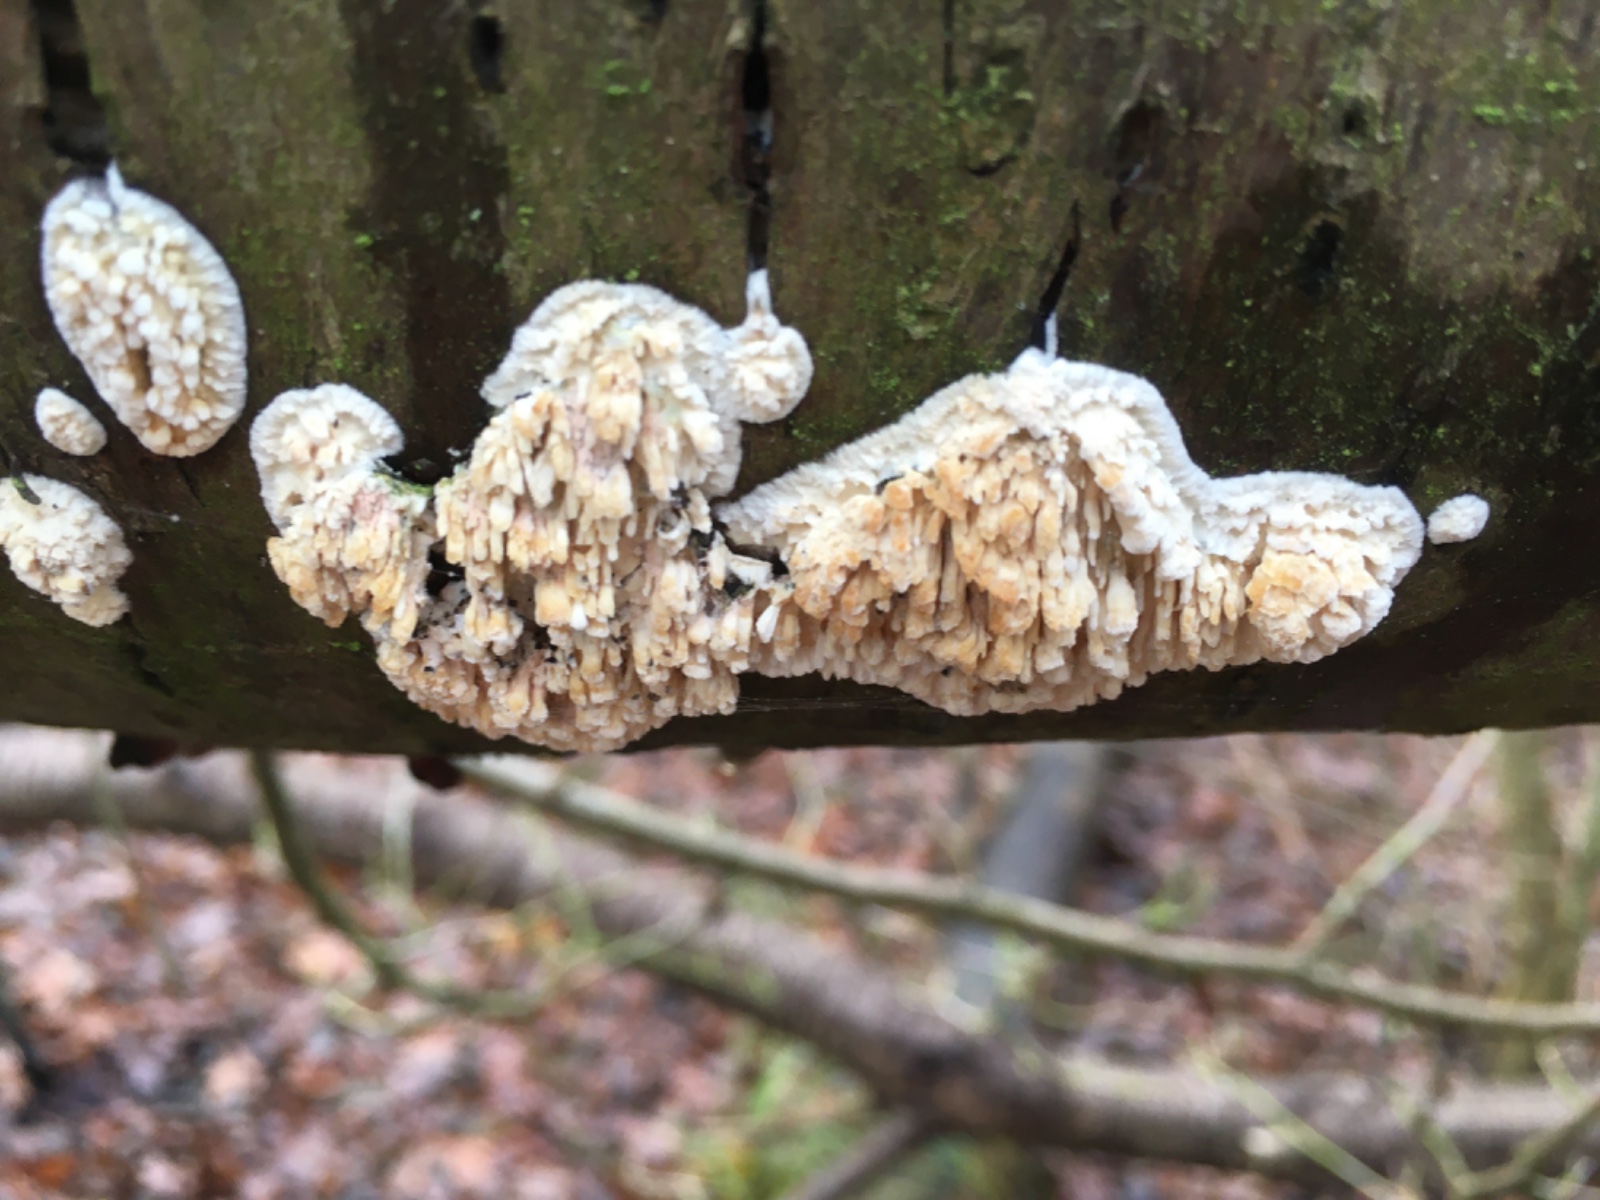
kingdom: Fungi
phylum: Basidiomycota
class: Agaricomycetes
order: Hymenochaetales
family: Schizoporaceae
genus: Xylodon
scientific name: Xylodon radula
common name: grovtandet kalkskind
